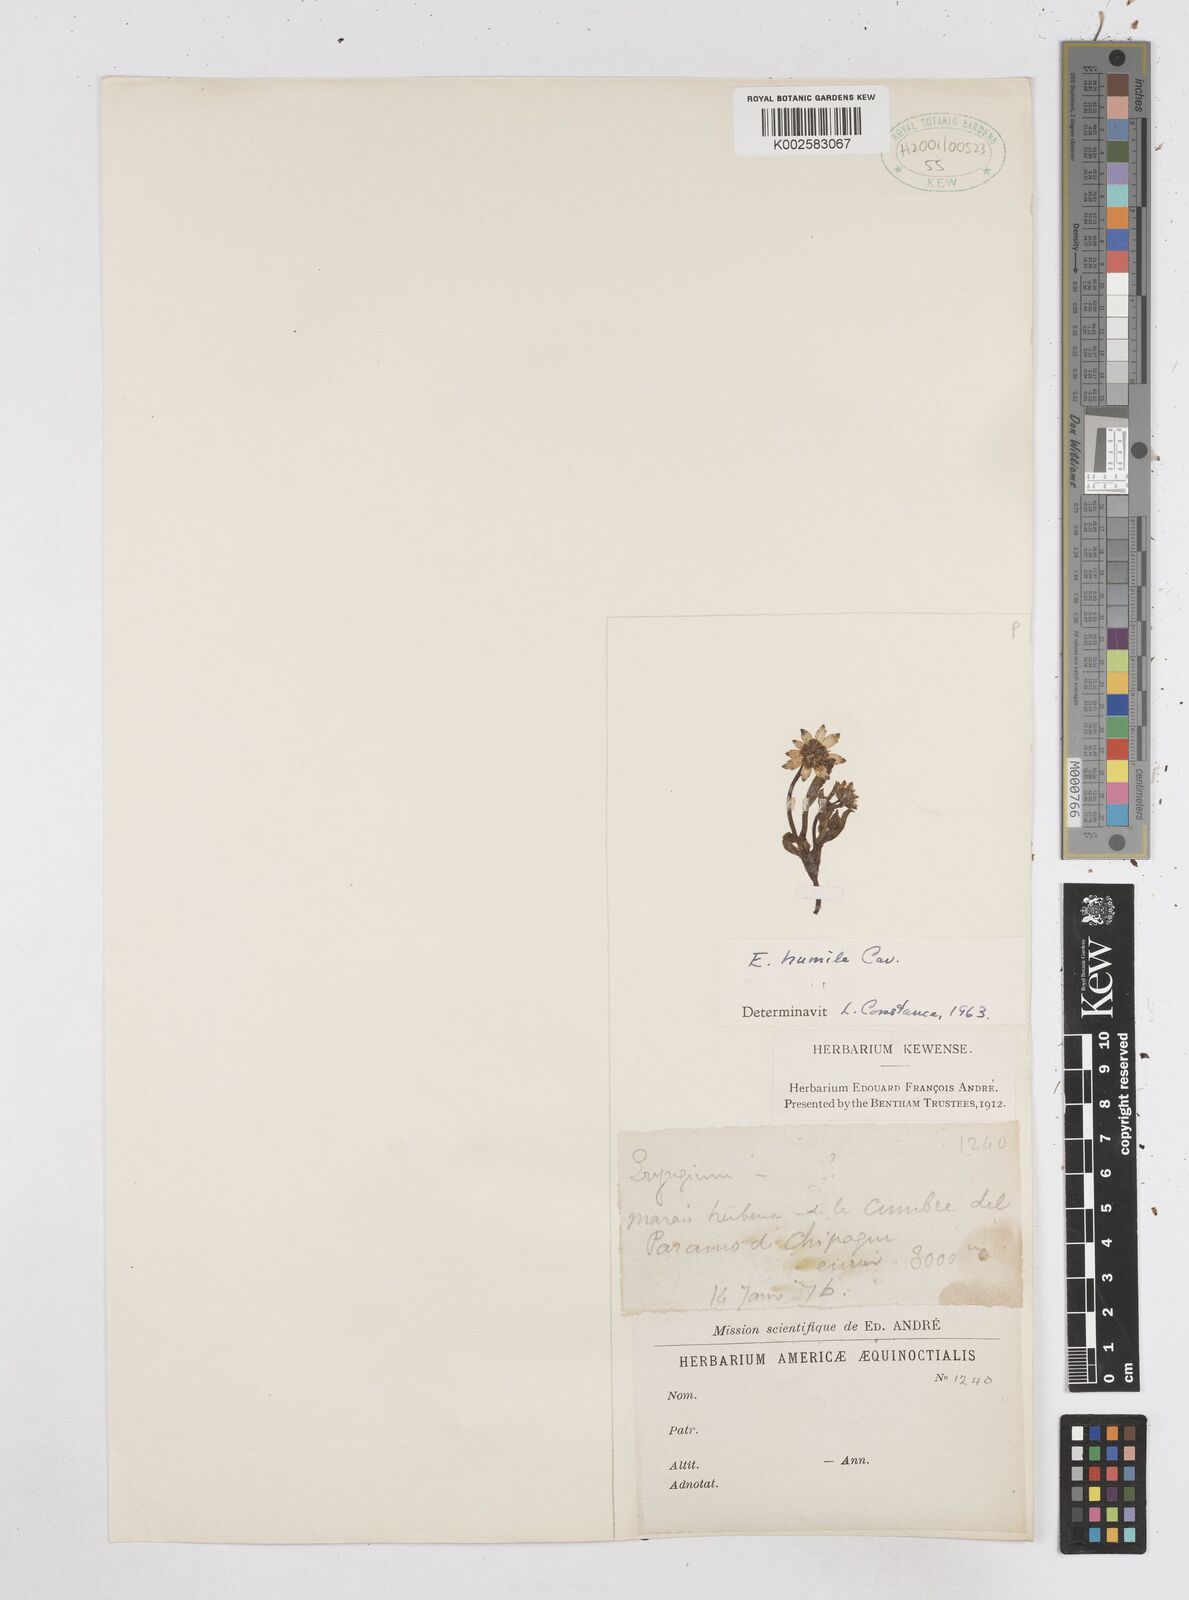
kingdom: Plantae
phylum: Tracheophyta
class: Magnoliopsida
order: Apiales
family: Apiaceae
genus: Eryngium
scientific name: Eryngium humile
